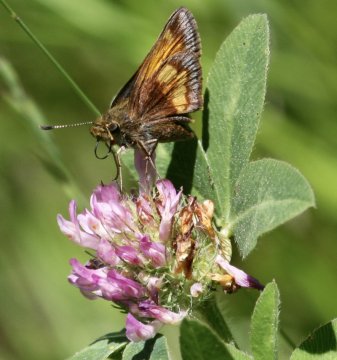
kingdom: Animalia
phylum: Arthropoda
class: Insecta
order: Lepidoptera
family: Hesperiidae
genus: Lon
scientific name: Lon hobomok
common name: Hobomok Skipper
